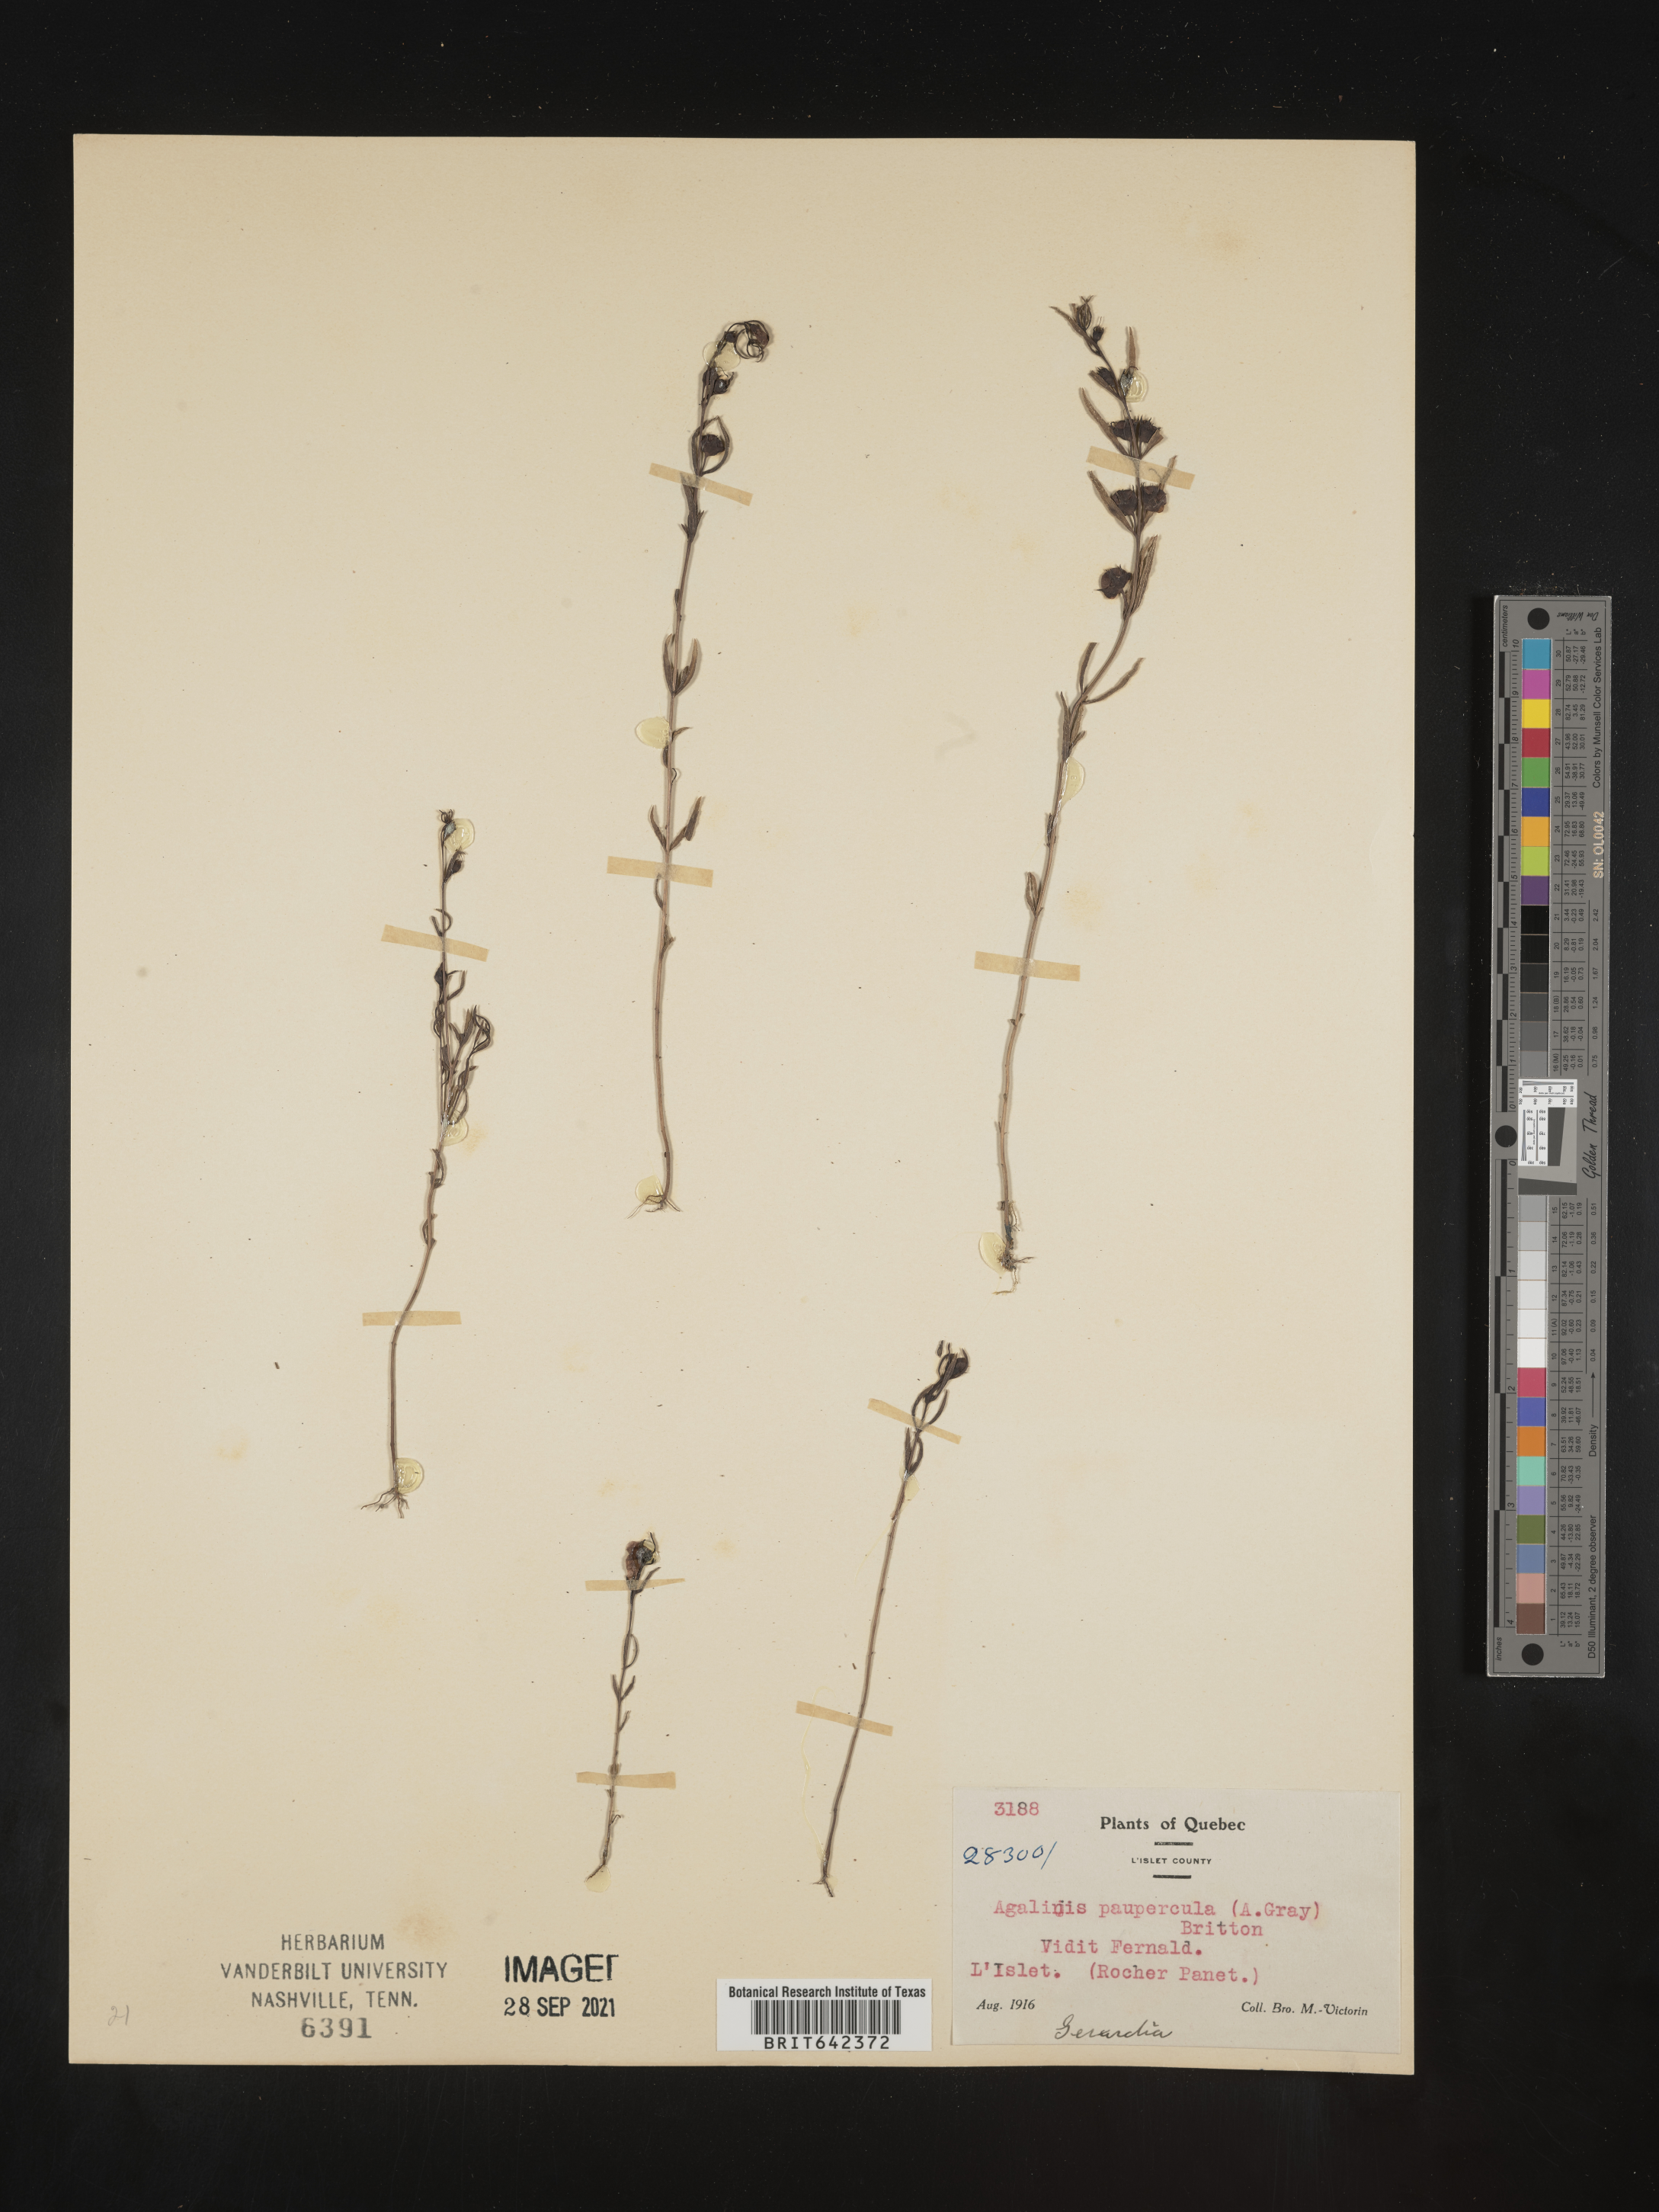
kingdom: Plantae
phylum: Tracheophyta
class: Magnoliopsida
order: Lamiales
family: Orobanchaceae
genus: Agalinis
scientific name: Agalinis
